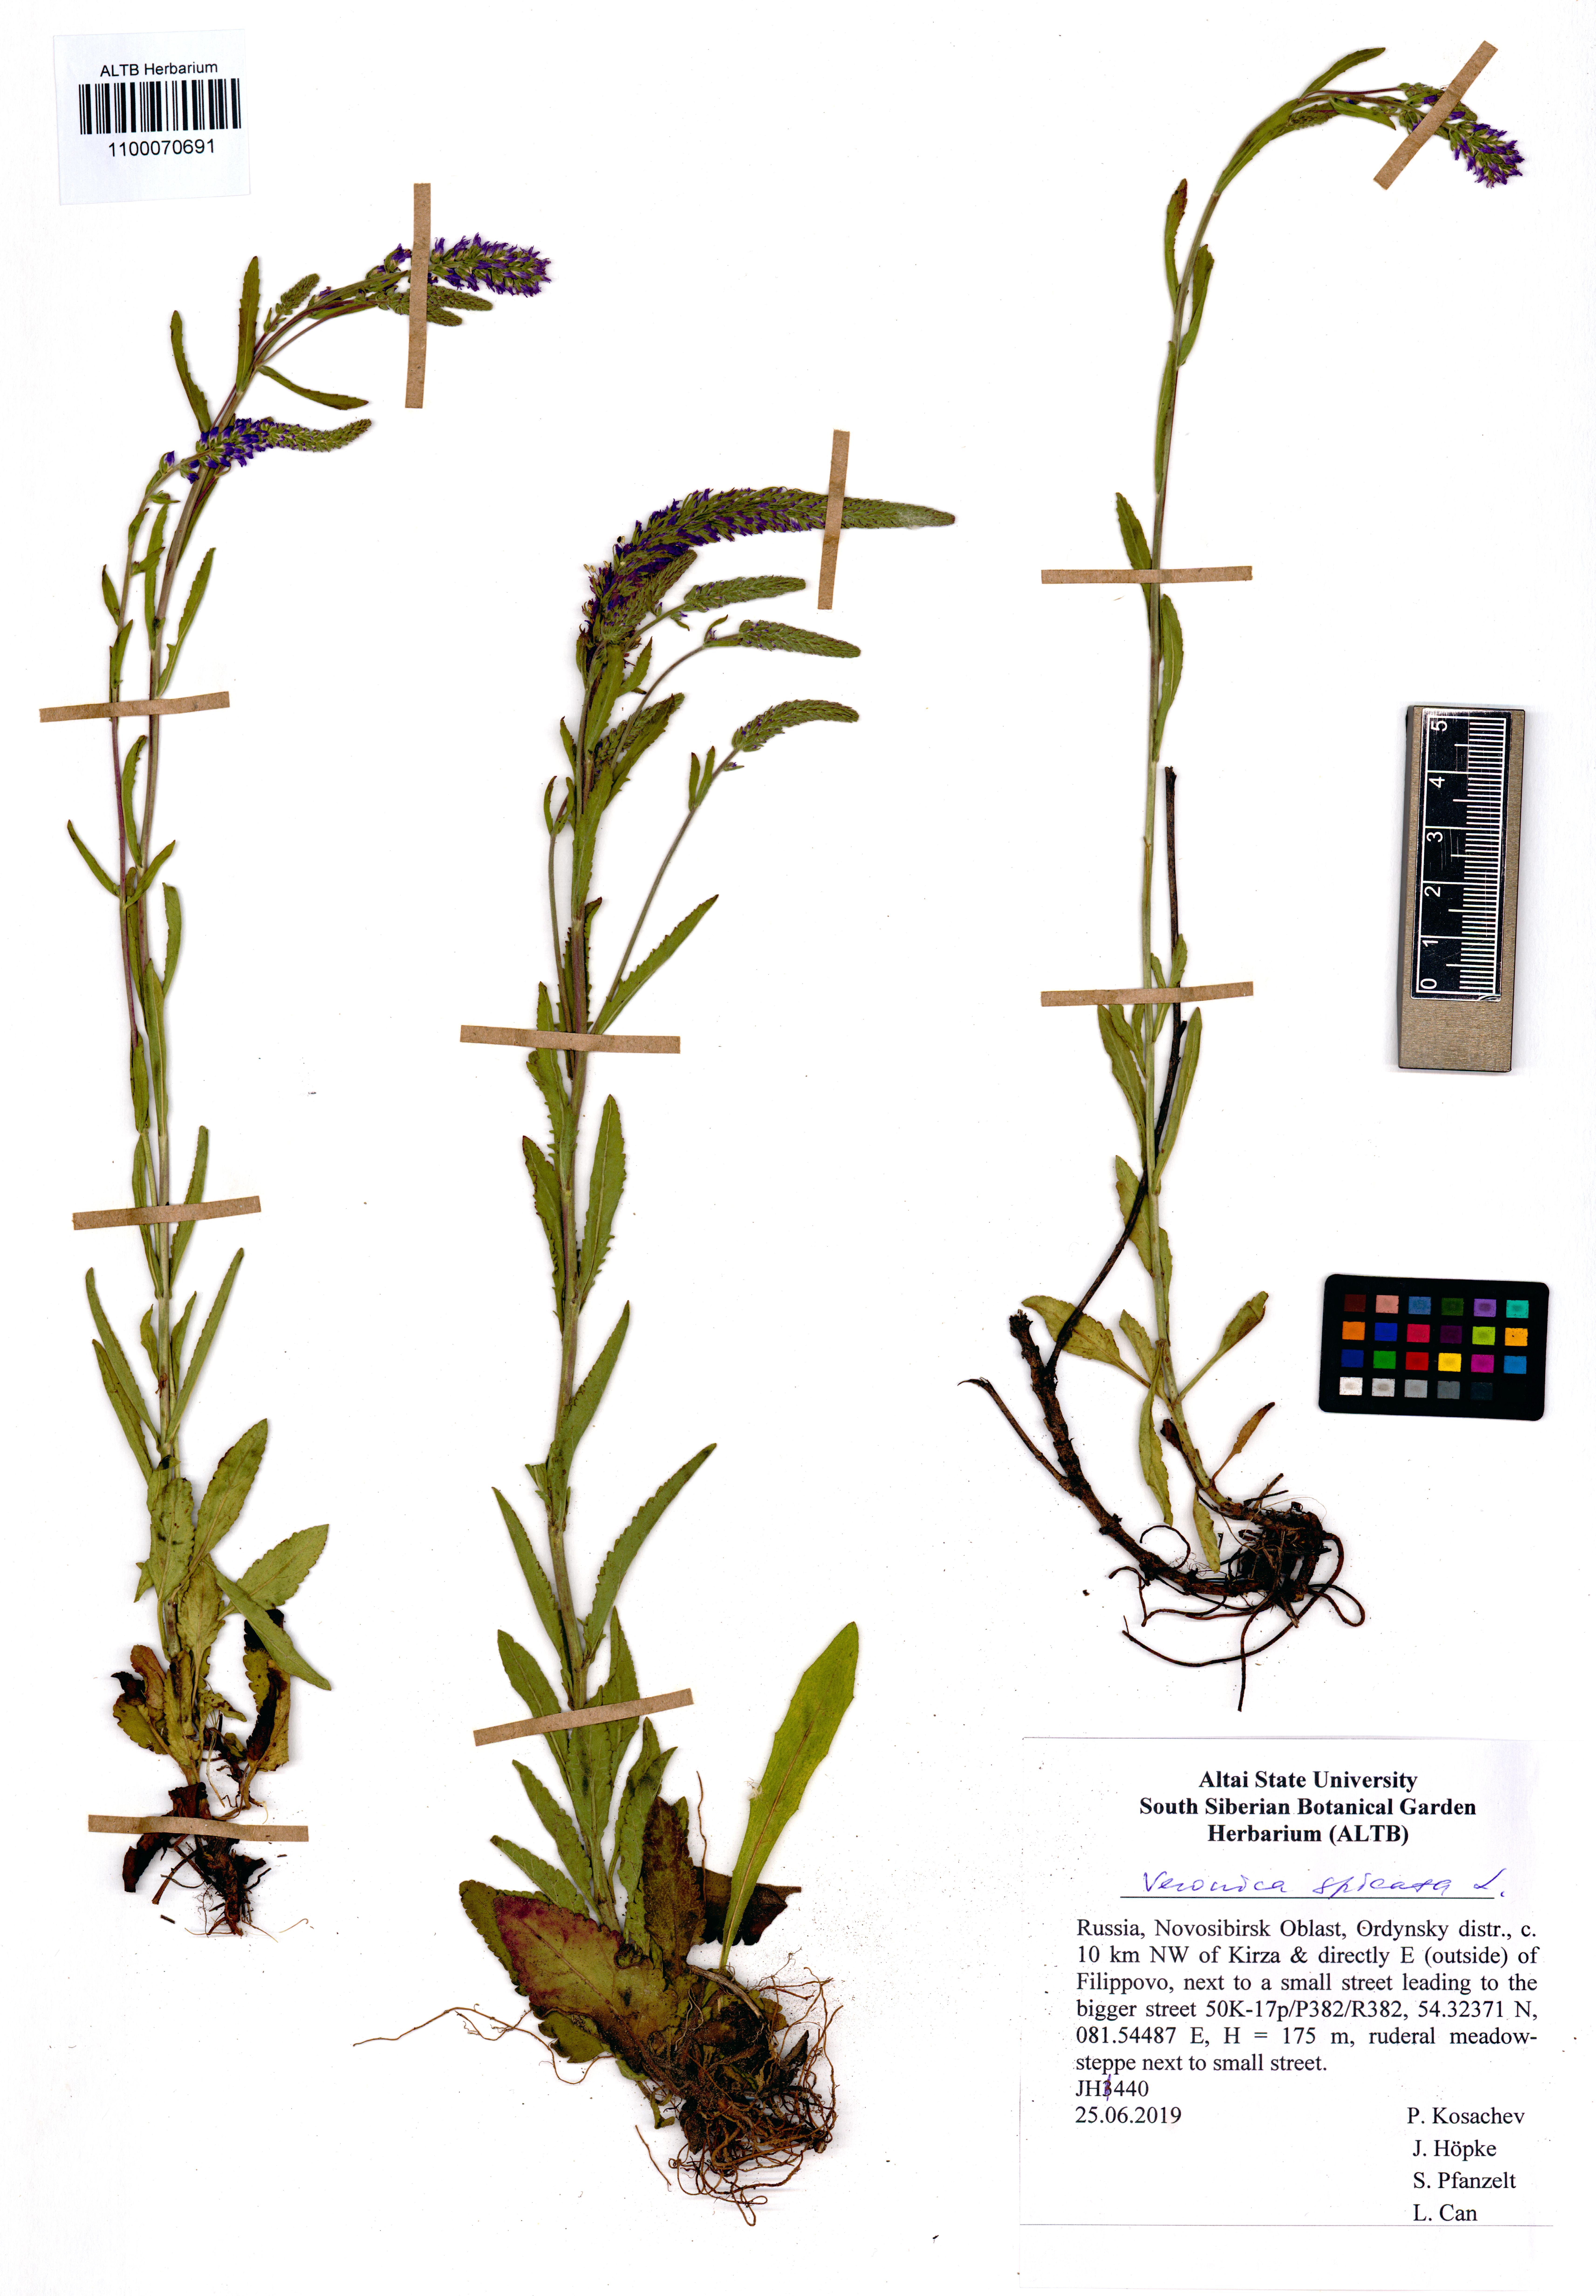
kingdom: Plantae
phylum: Tracheophyta
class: Magnoliopsida
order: Lamiales
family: Plantaginaceae
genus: Veronica
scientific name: Veronica spicata
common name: Spiked speedwell
